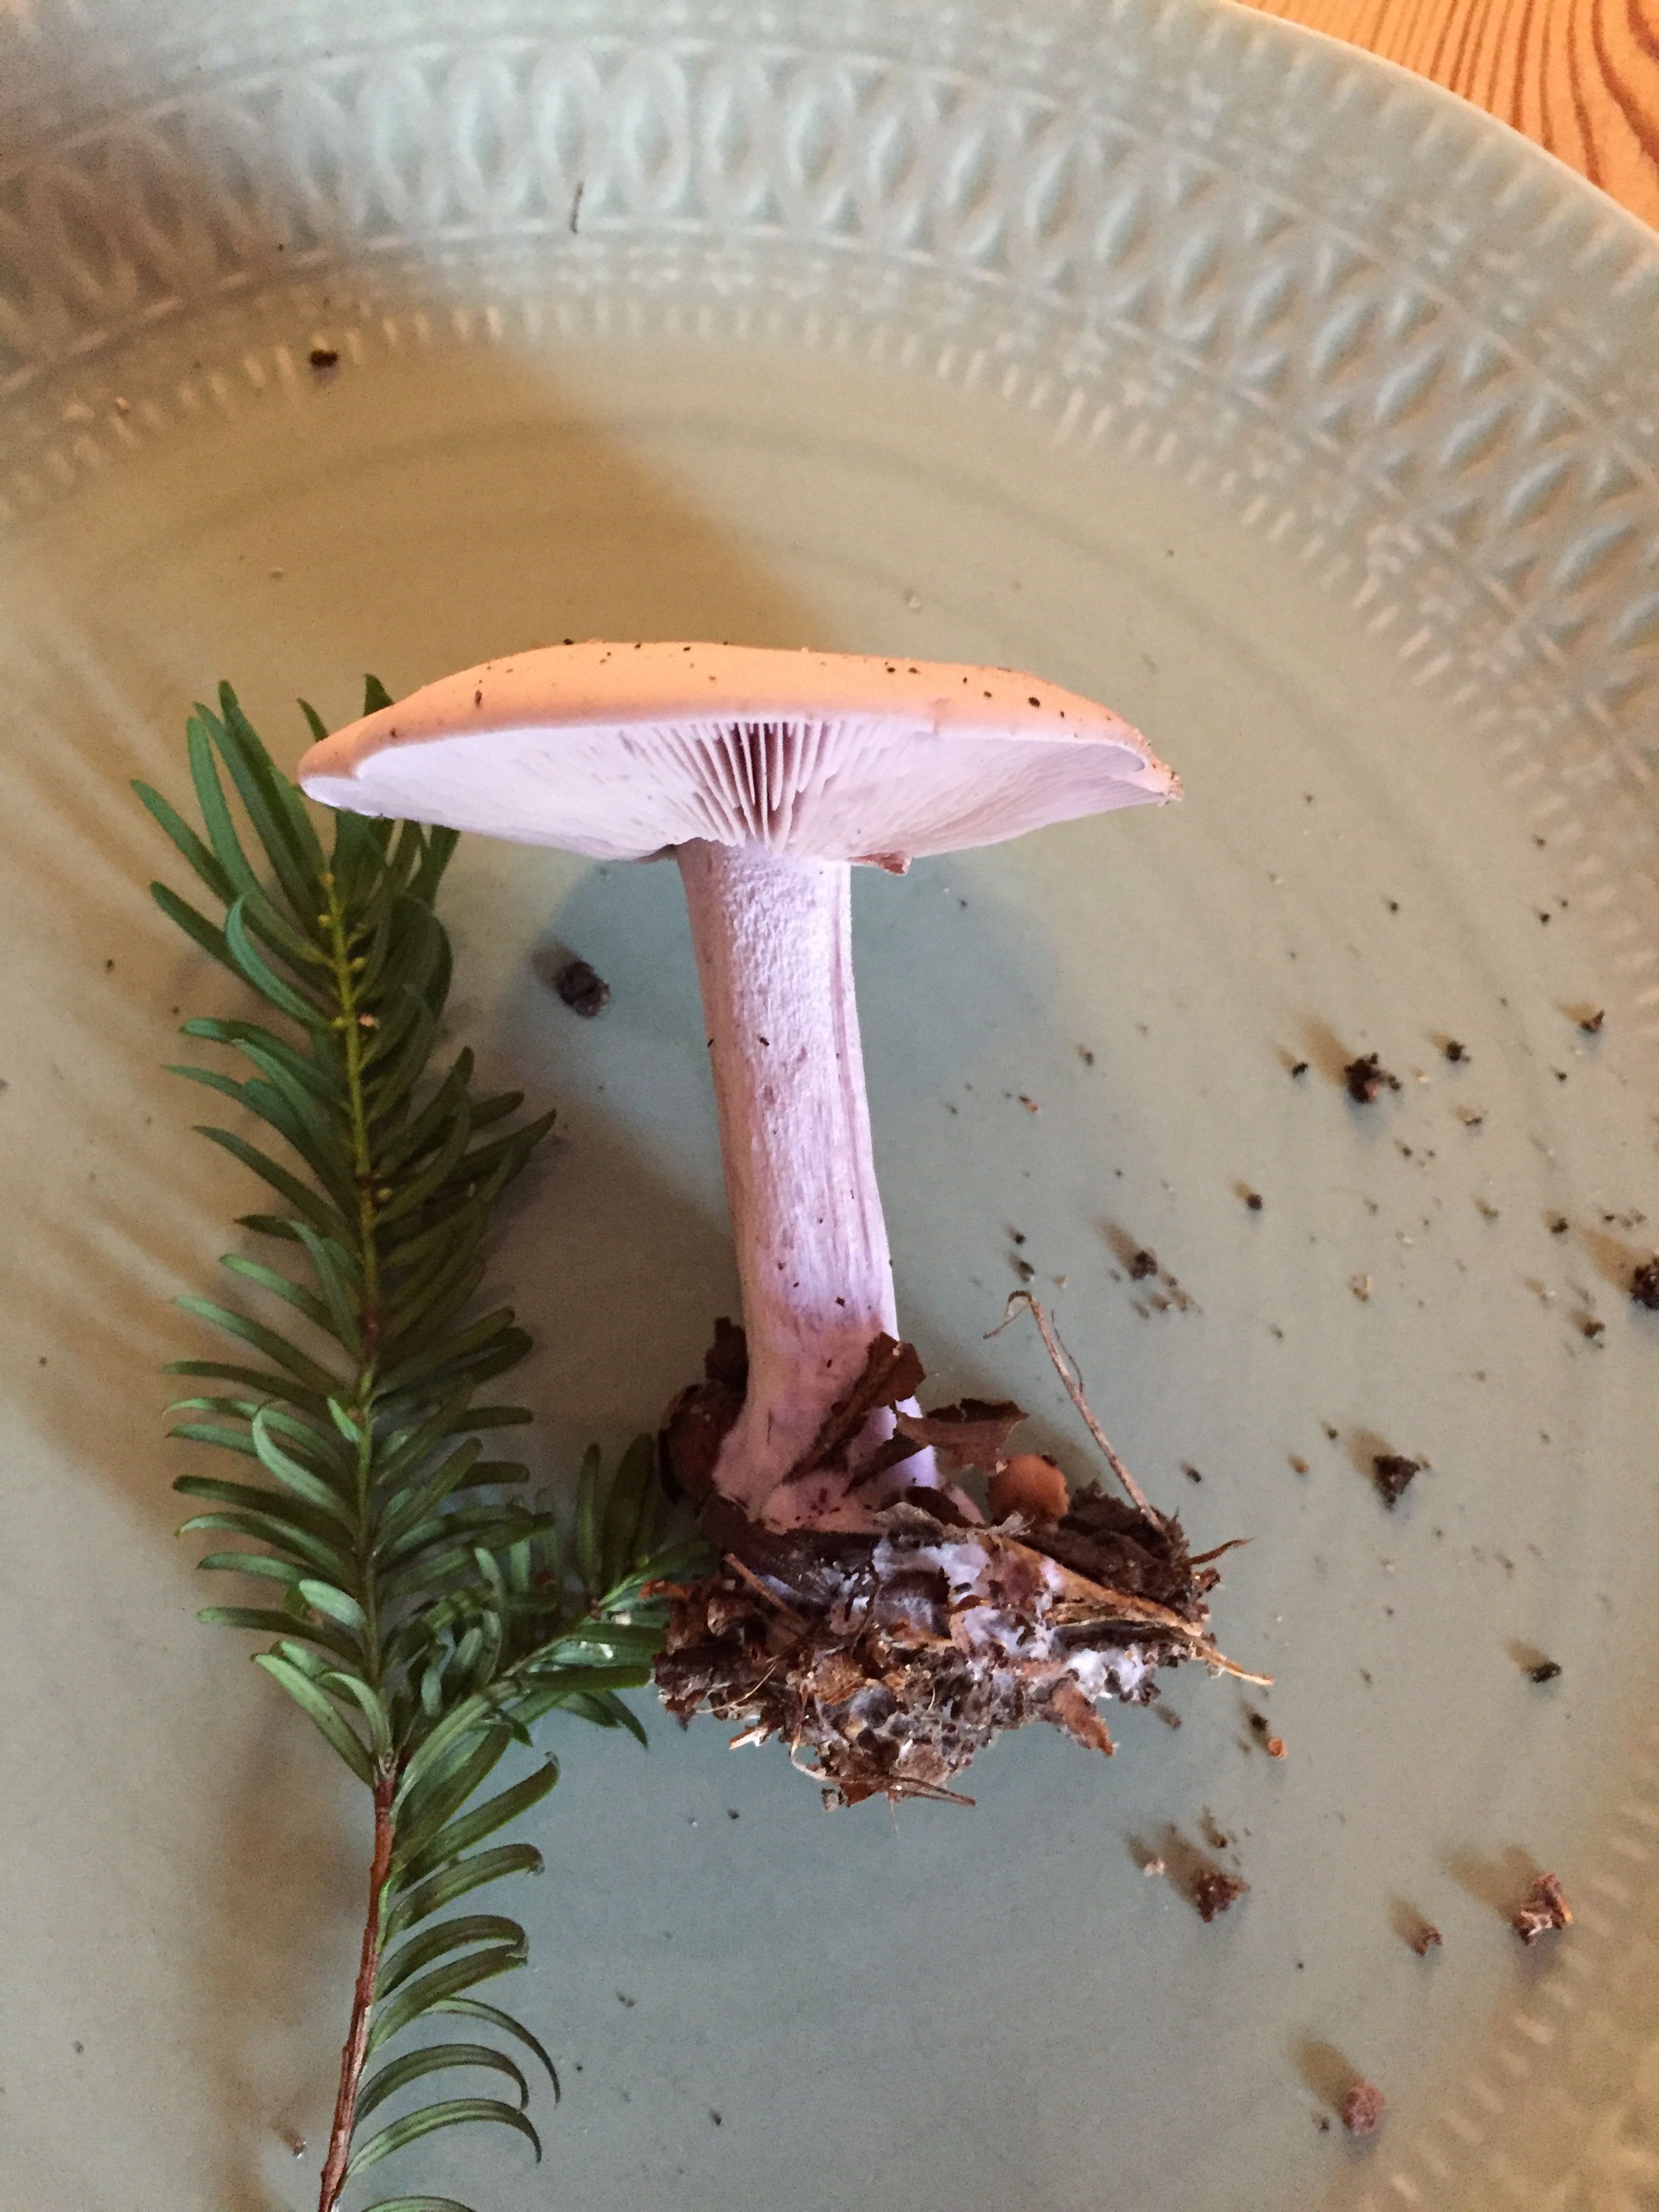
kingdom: Fungi
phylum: Basidiomycota
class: Agaricomycetes
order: Agaricales
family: Tricholomataceae
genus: Lepista
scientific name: Lepista nuda
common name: violet hekseringshat
